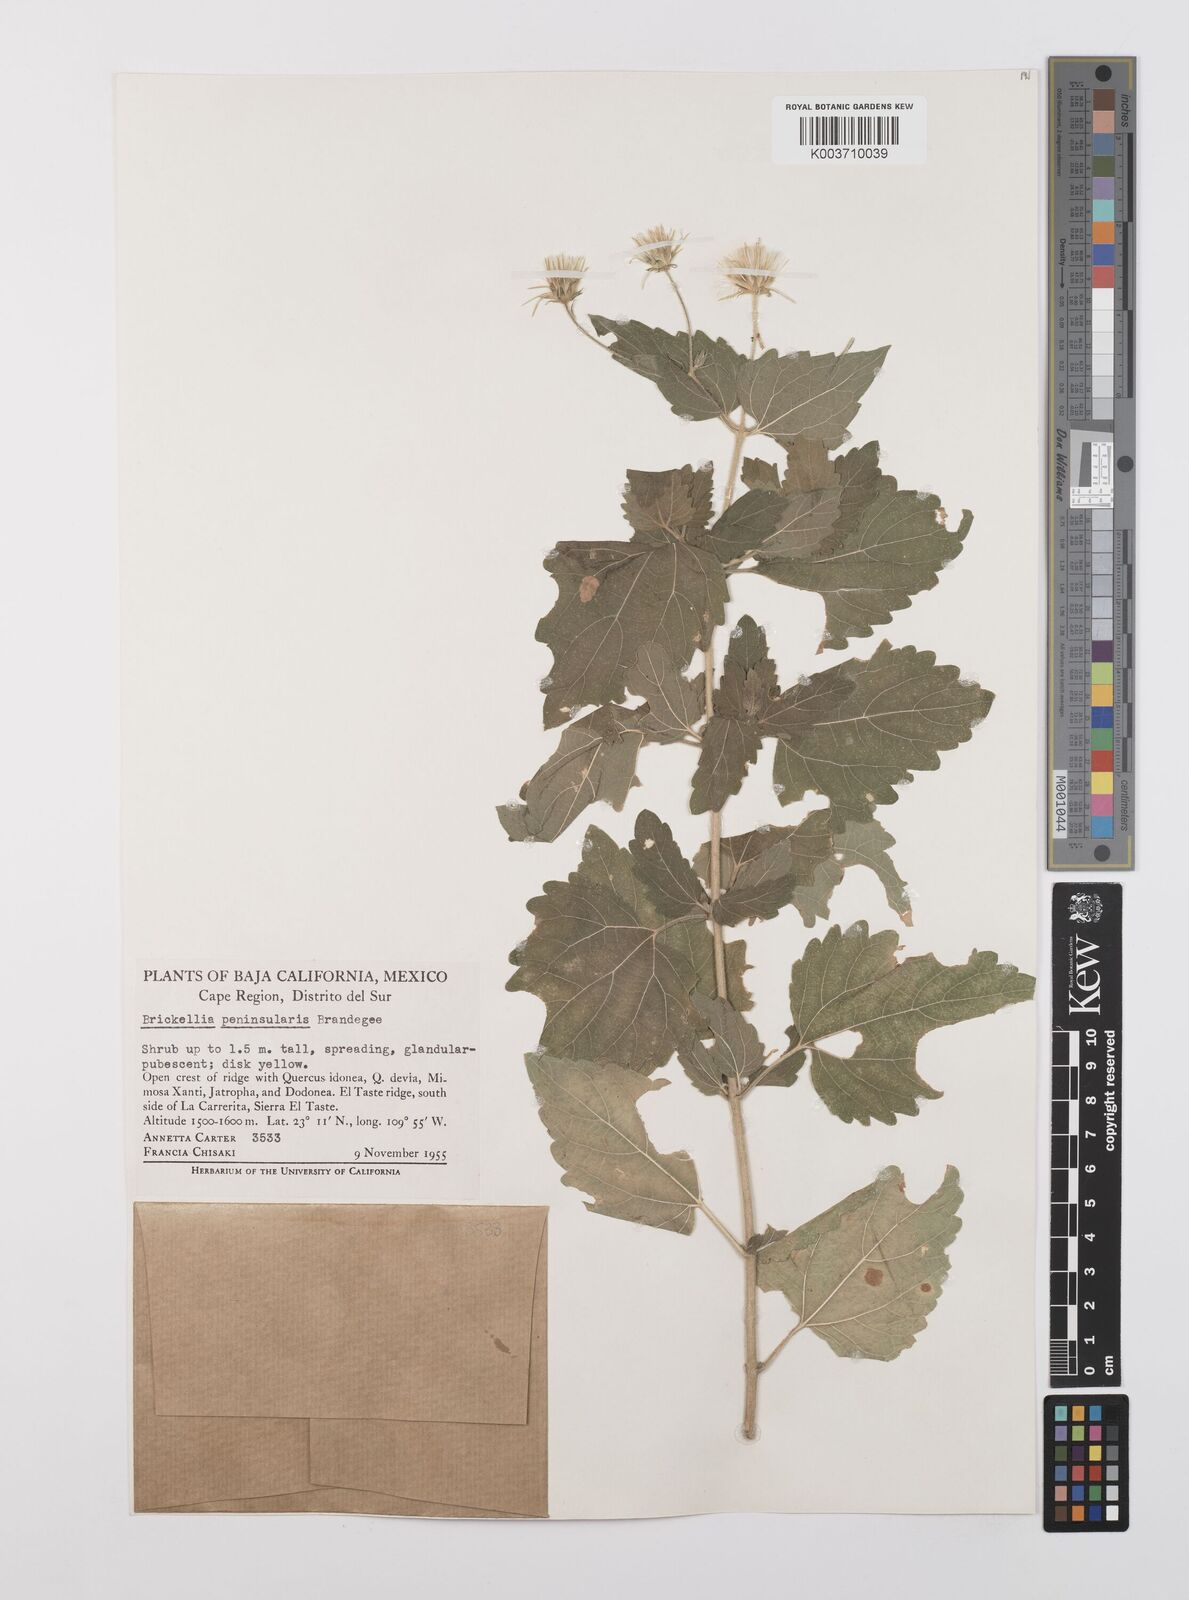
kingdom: Plantae
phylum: Tracheophyta
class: Magnoliopsida
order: Asterales
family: Asteraceae
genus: Brickellia
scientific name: Brickellia peninsularis
